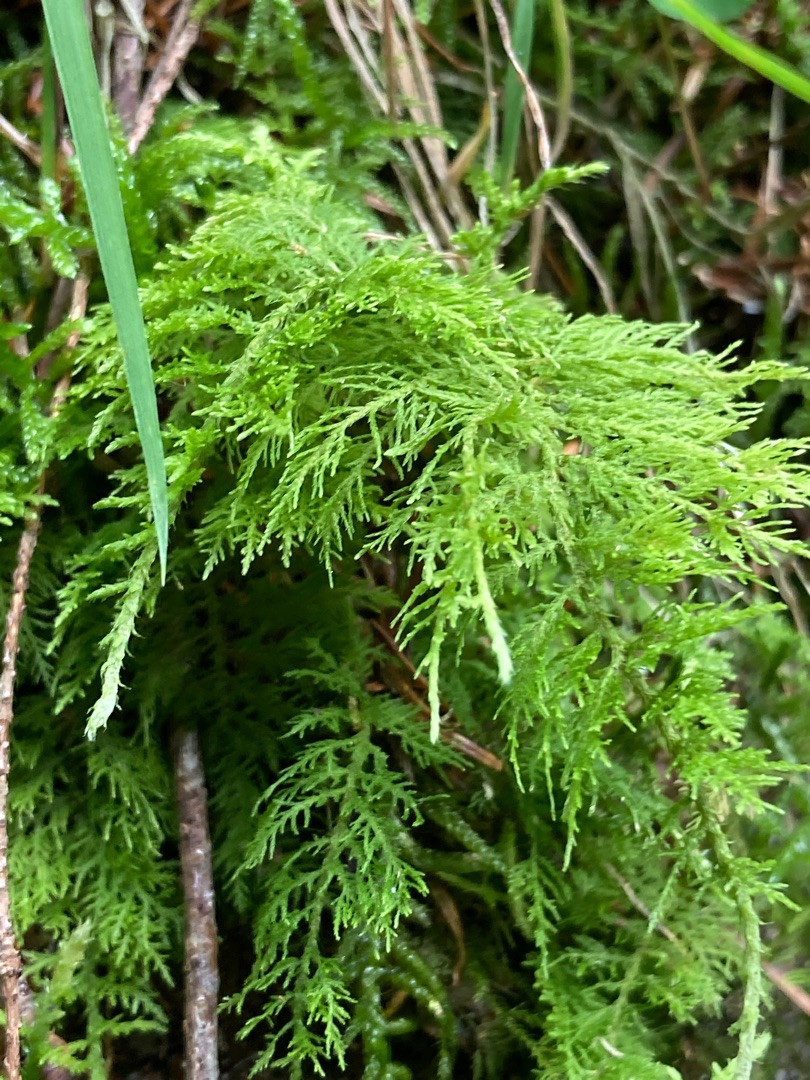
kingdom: Plantae
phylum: Bryophyta
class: Bryopsida
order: Hypnales
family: Thuidiaceae
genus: Thuidium
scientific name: Thuidium tamariscinum
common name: Pryd-bregnemos
